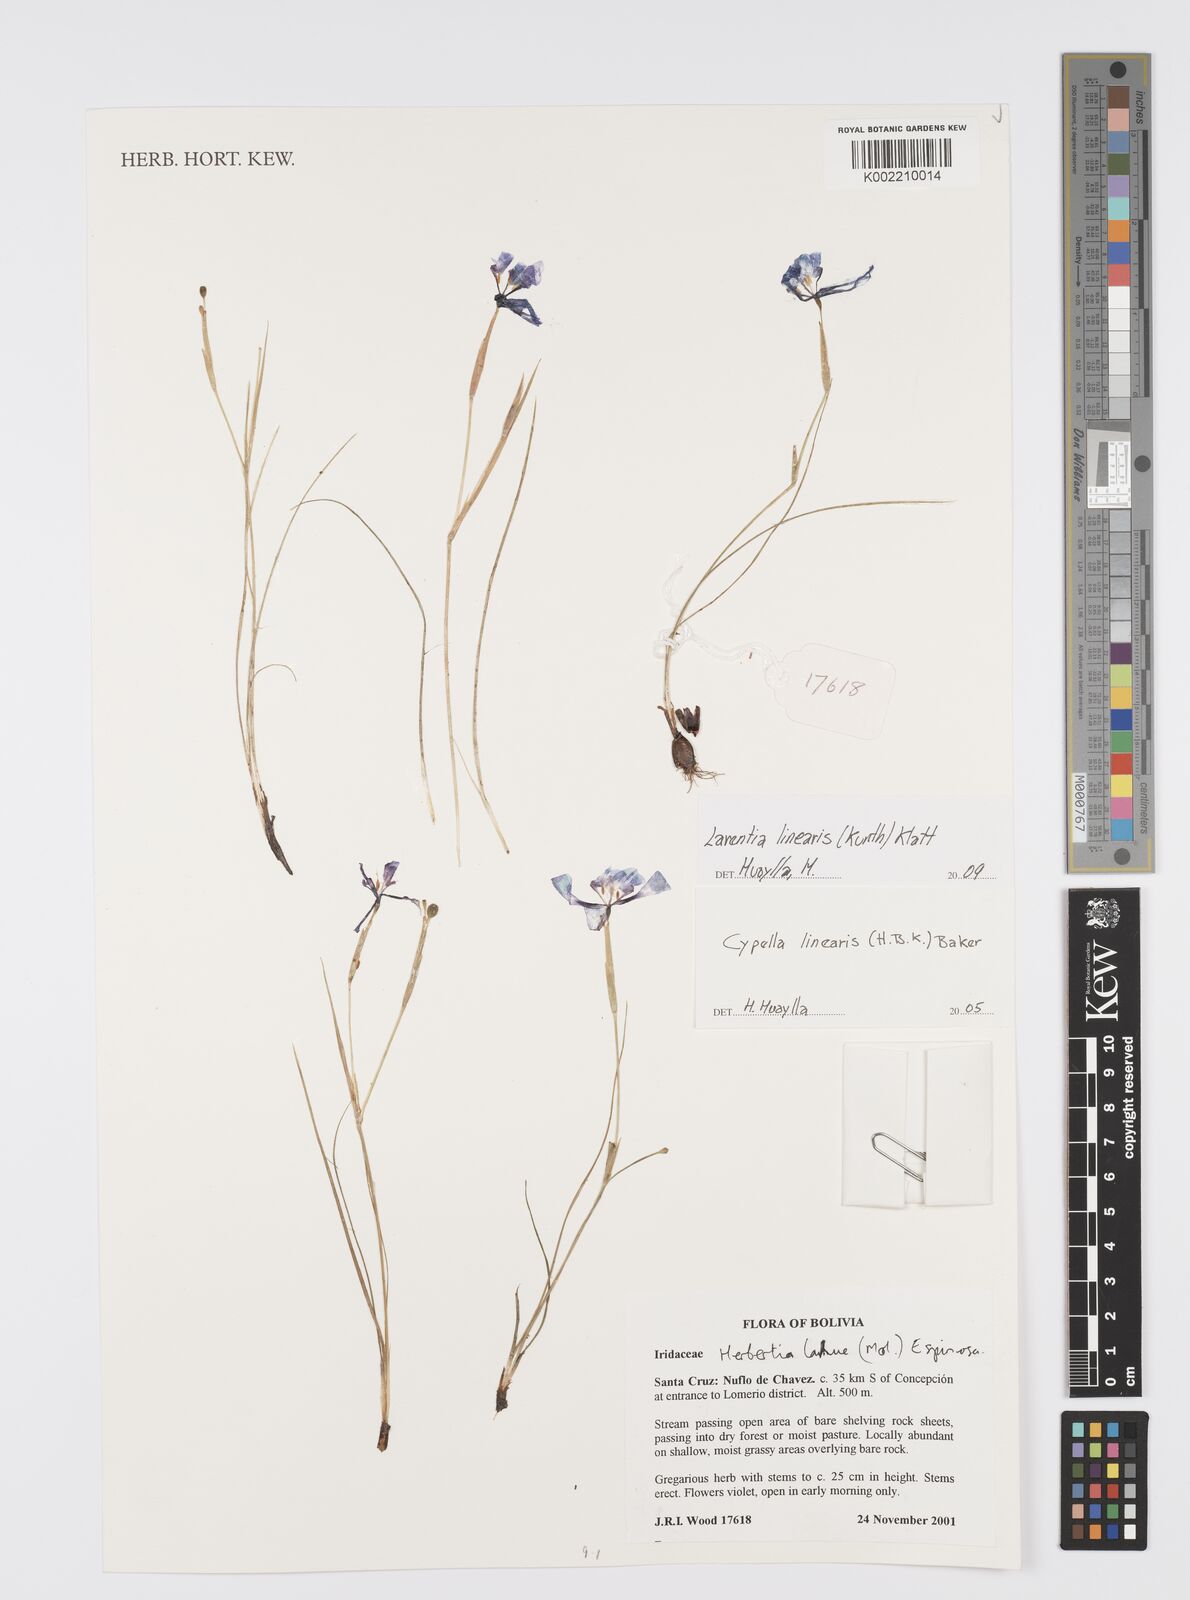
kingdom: Plantae
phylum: Tracheophyta
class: Liliopsida
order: Asparagales
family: Iridaceae
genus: Larentia
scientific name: Larentia linearis
